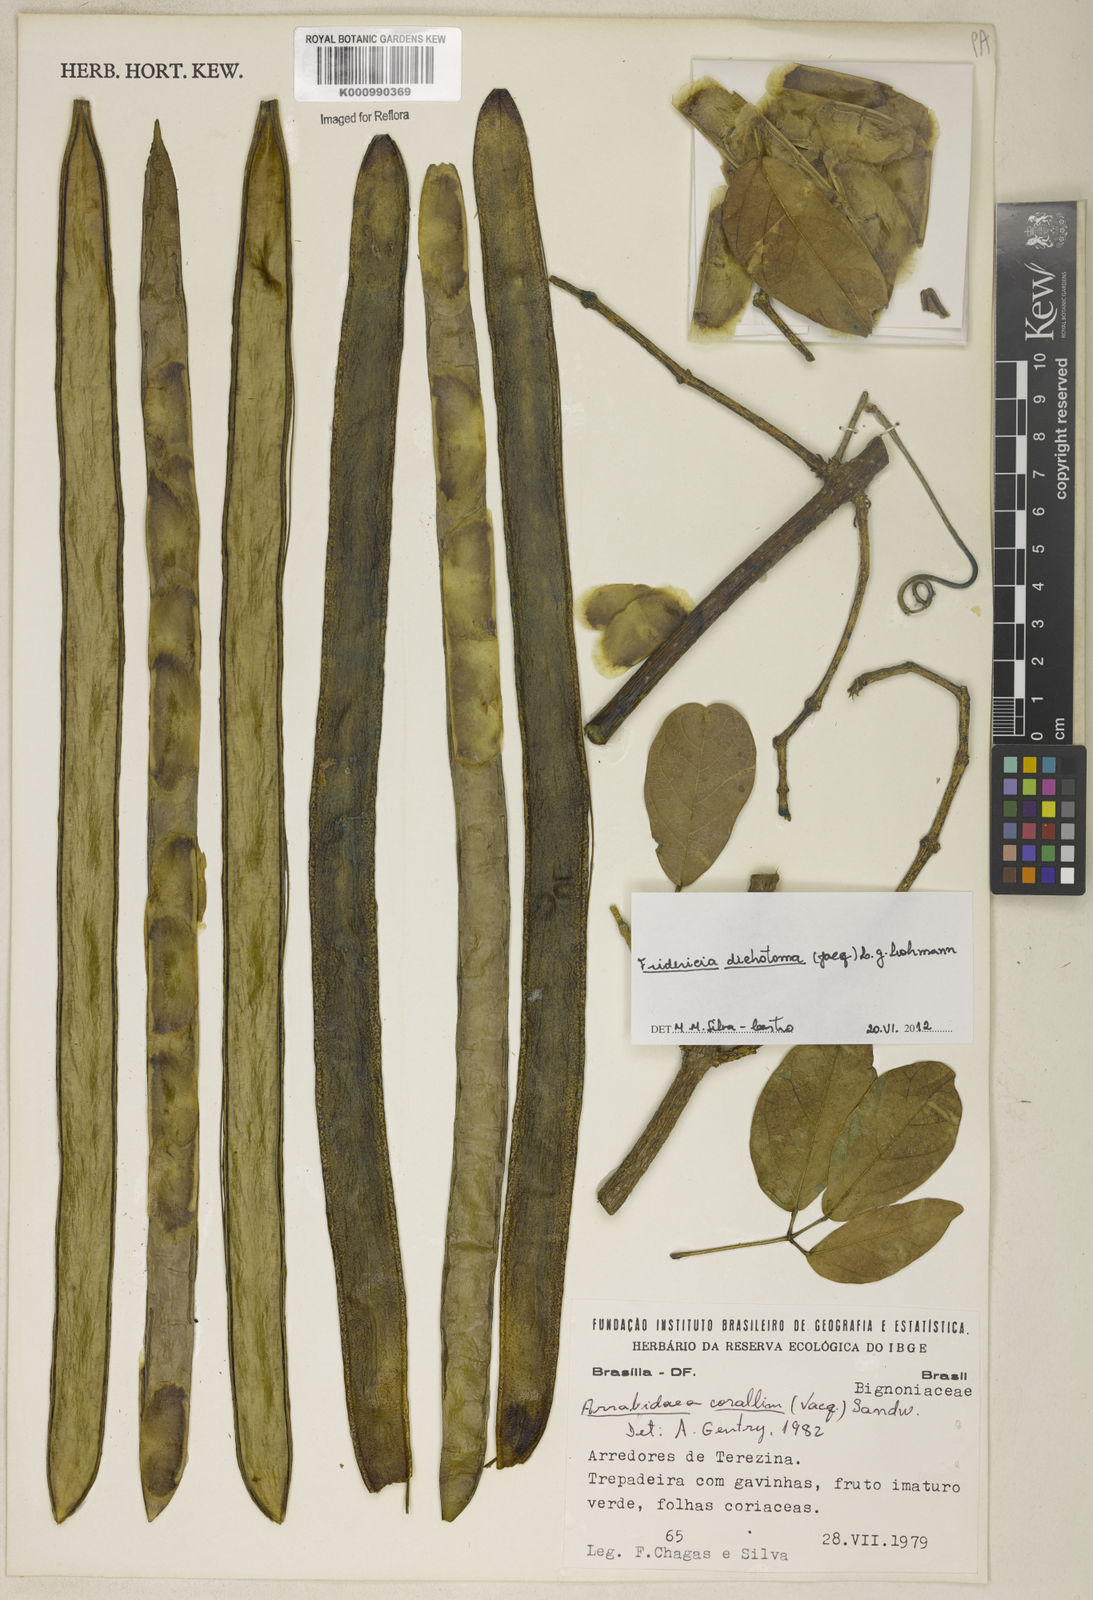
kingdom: Plantae
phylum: Tracheophyta
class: Magnoliopsida
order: Lamiales
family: Bignoniaceae
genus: Tanaecium
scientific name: Tanaecium dichotomum
